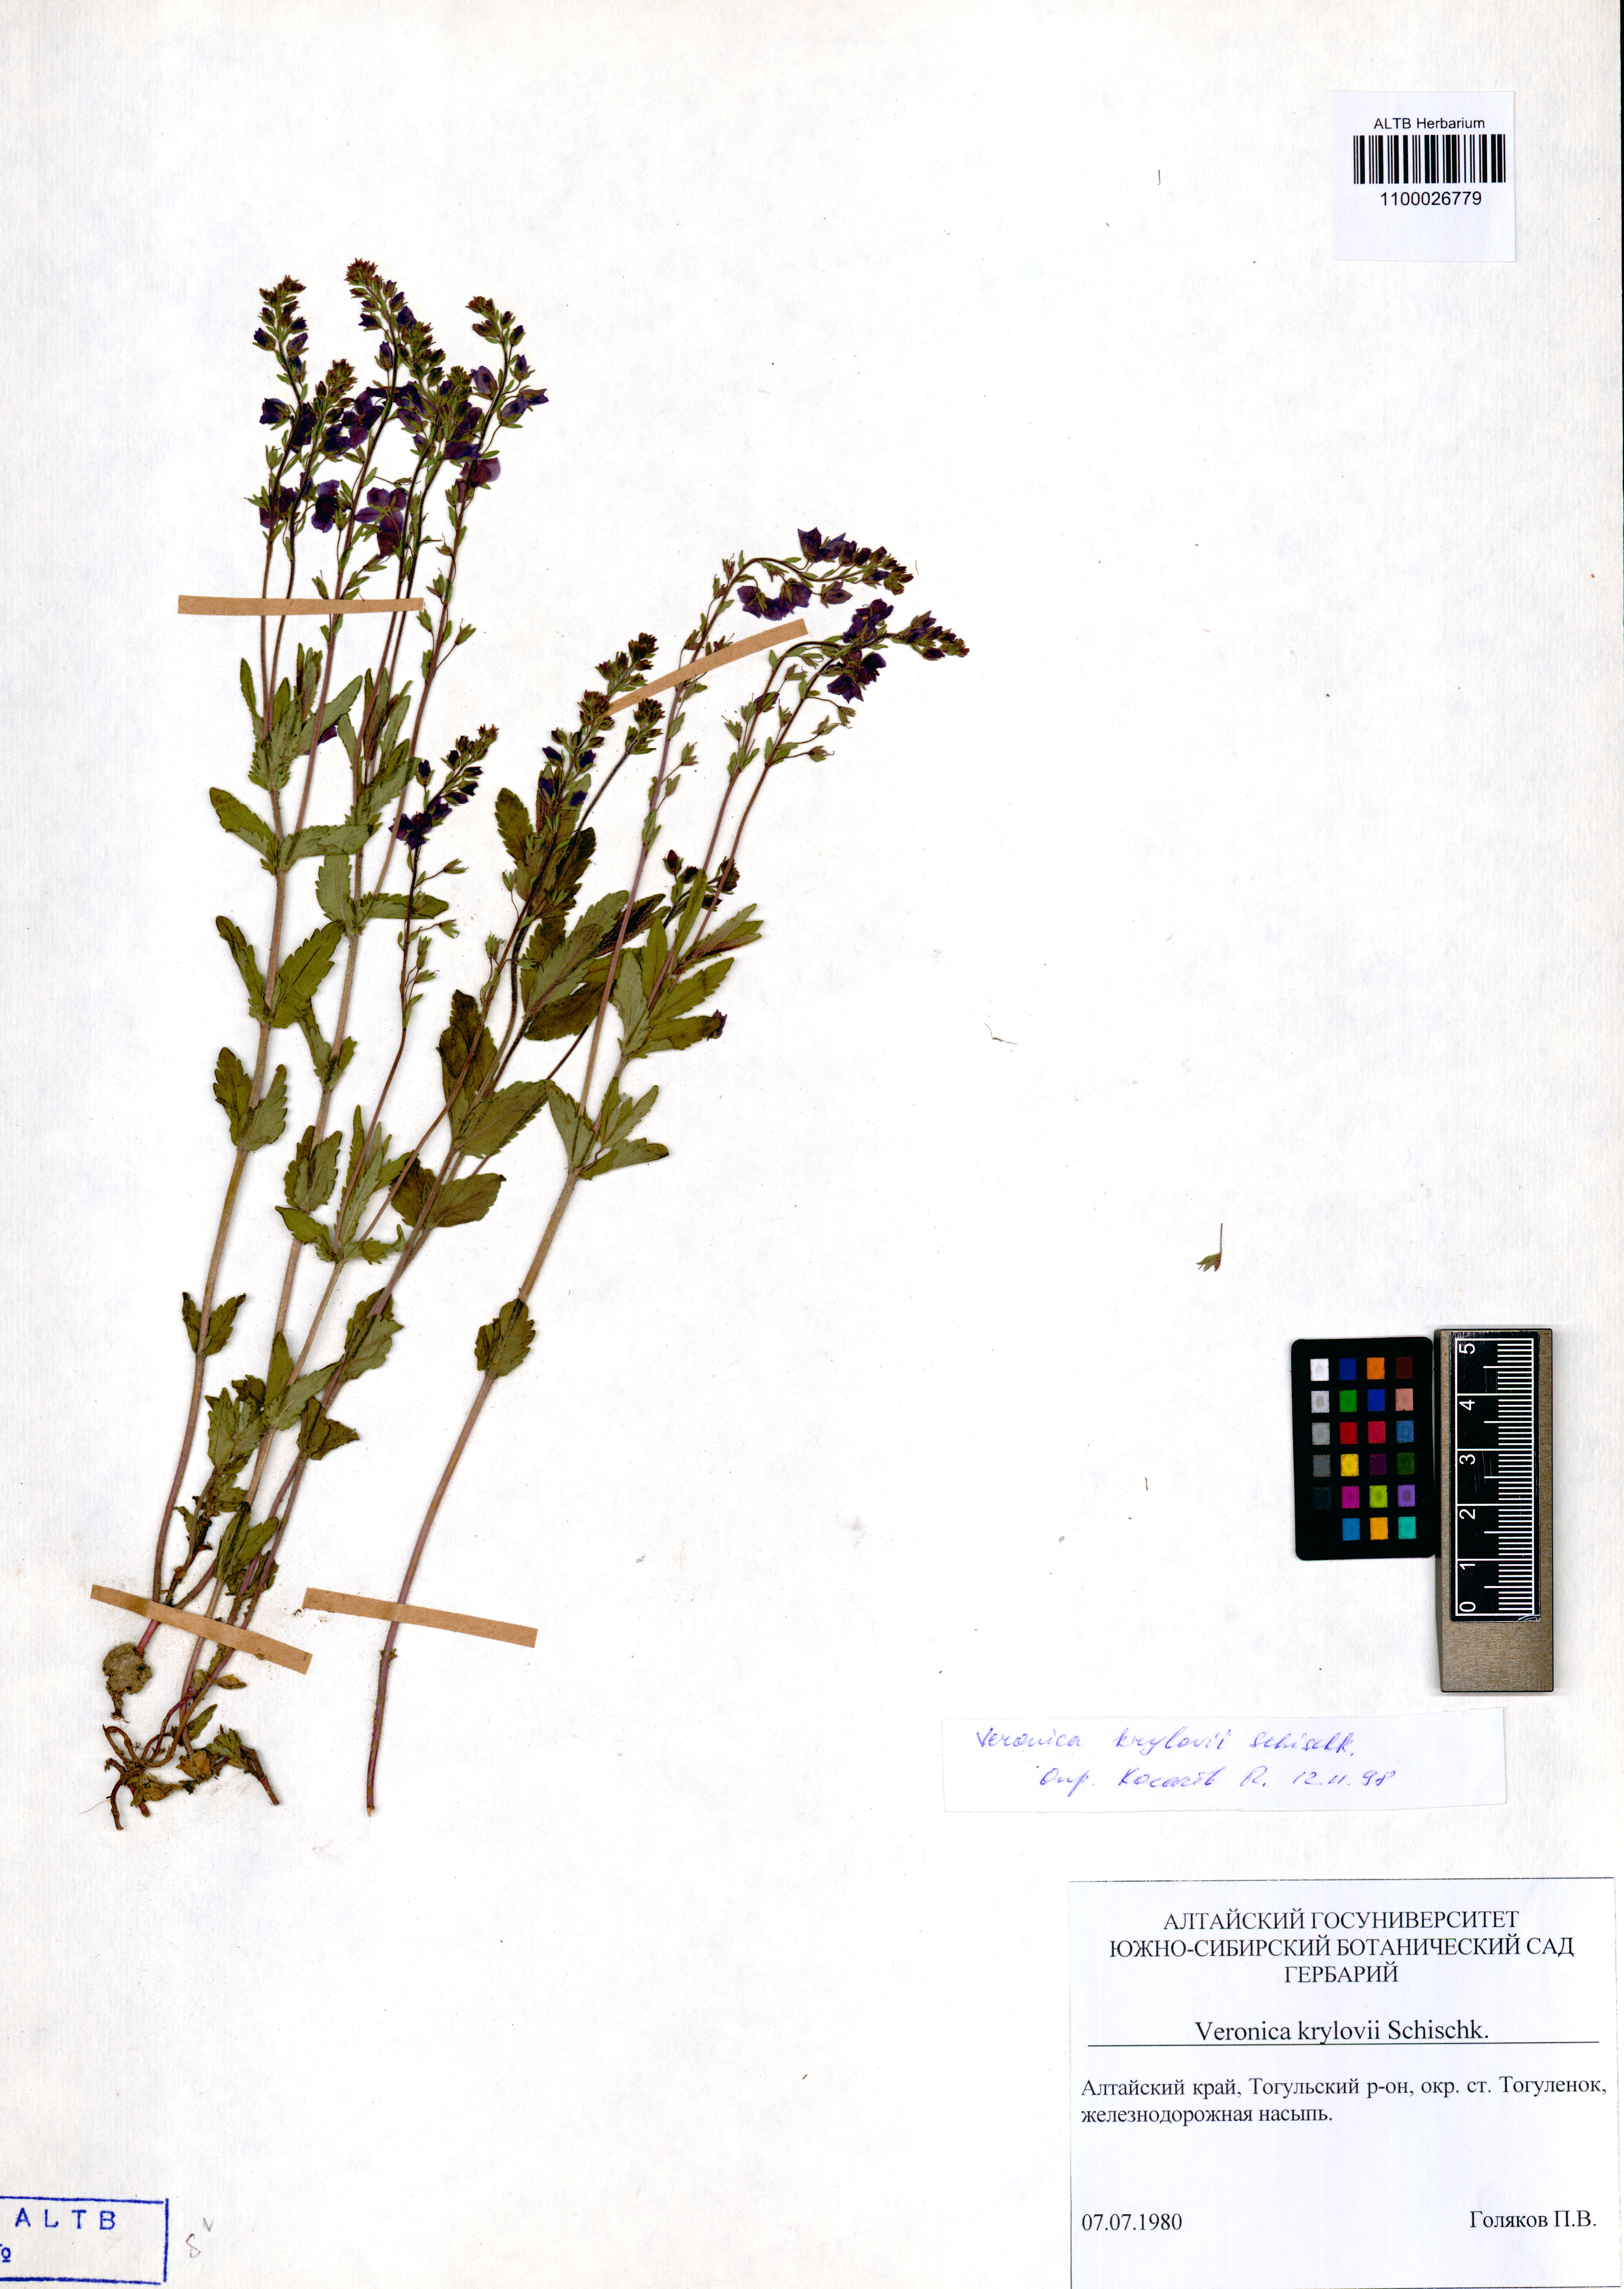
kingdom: Plantae
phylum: Tracheophyta
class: Magnoliopsida
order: Lamiales
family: Plantaginaceae
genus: Veronica
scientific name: Veronica krylovii
